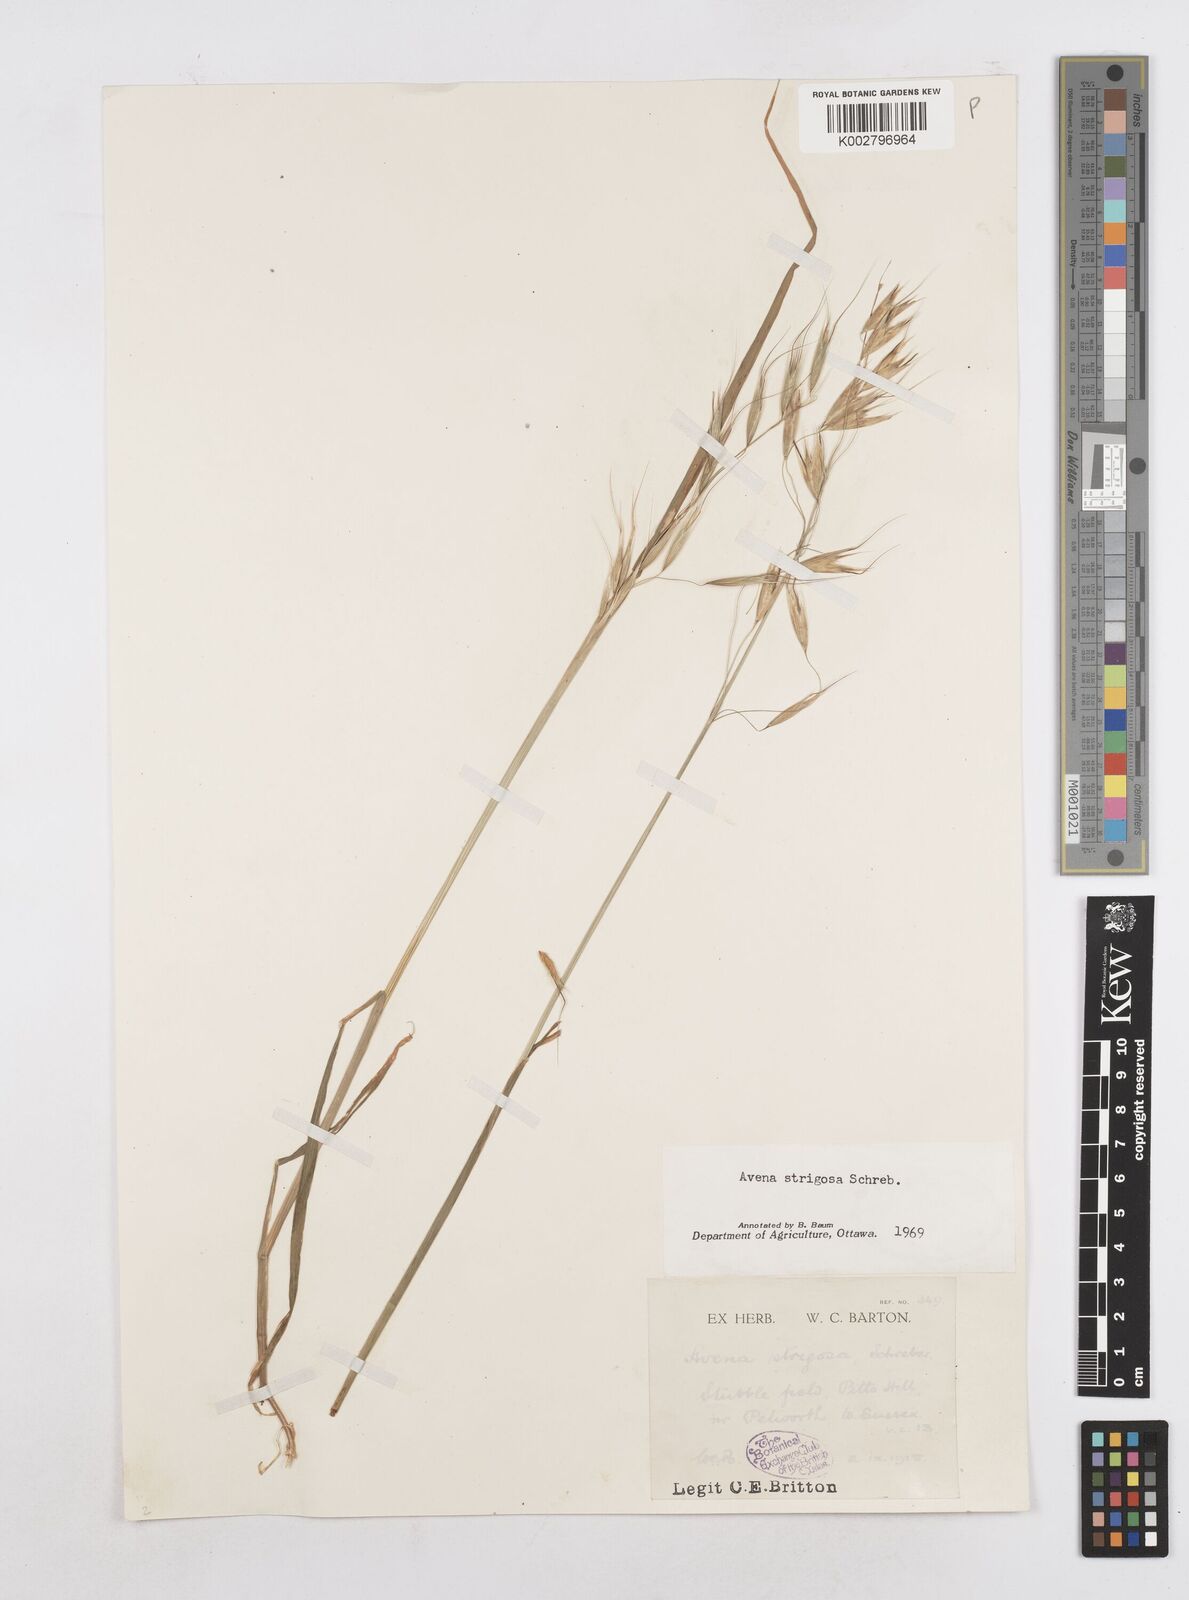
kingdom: Plantae
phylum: Tracheophyta
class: Liliopsida
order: Poales
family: Poaceae
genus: Avena
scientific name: Avena strigosa
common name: Bristle oat
